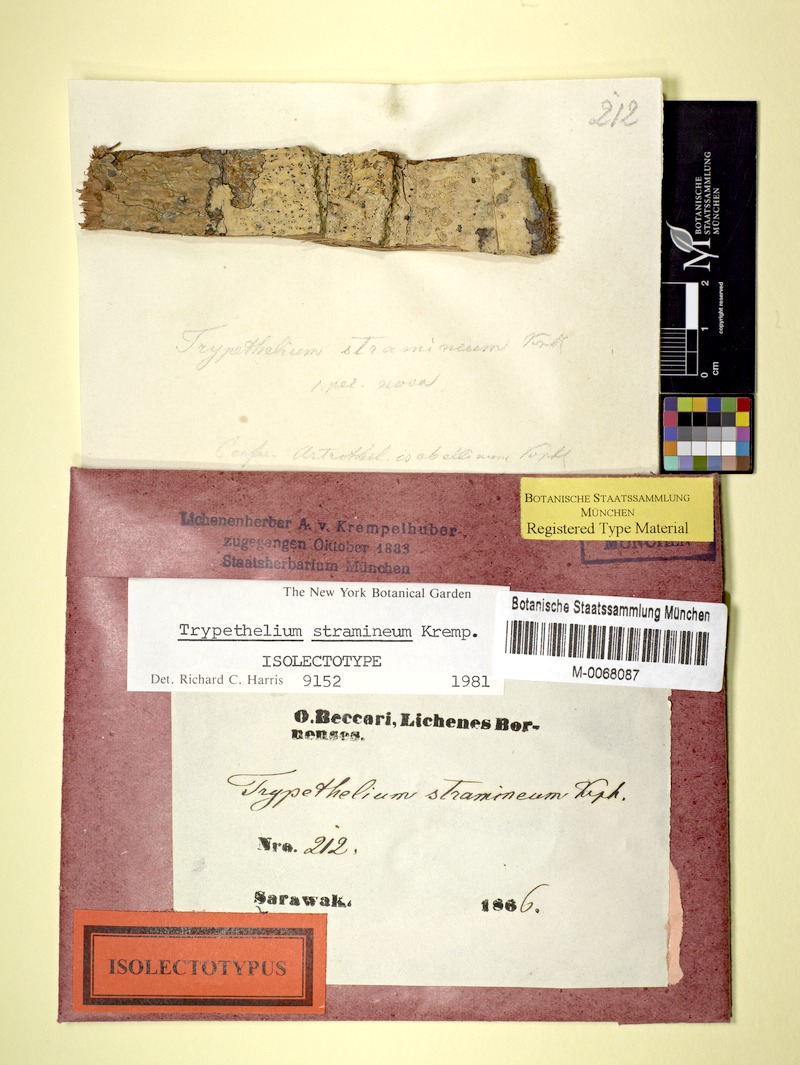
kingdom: Fungi
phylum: Ascomycota
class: Dothideomycetes
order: Trypetheliales
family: Trypetheliaceae
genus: Trypethelium
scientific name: Trypethelium stramineum
